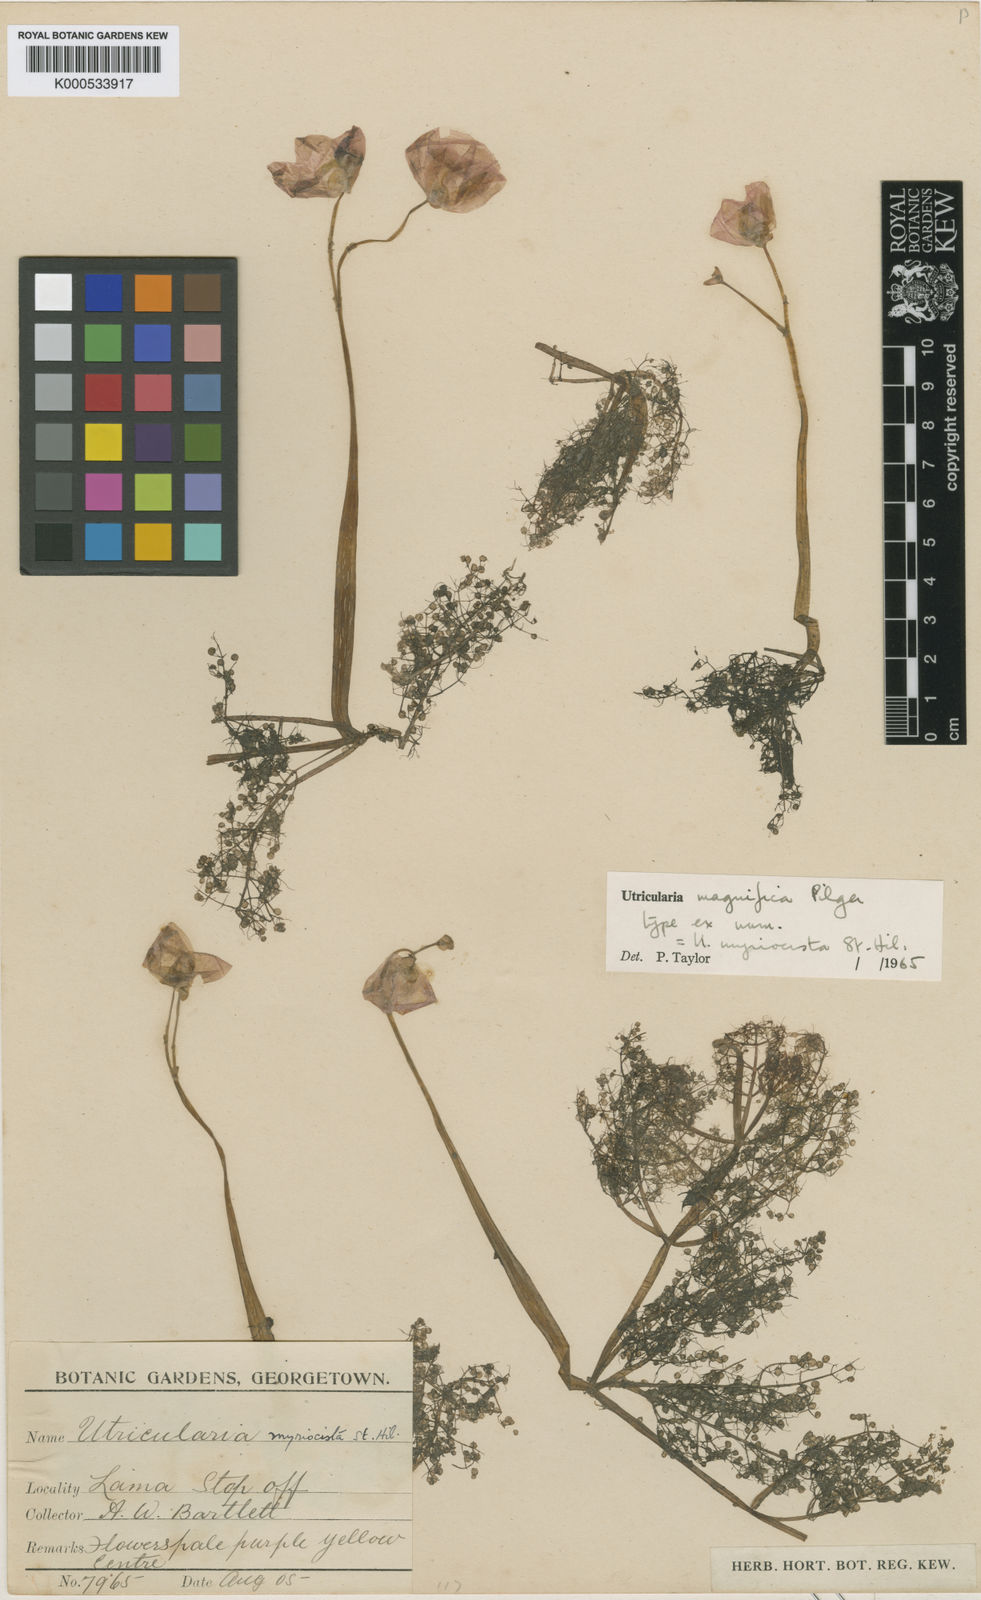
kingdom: Plantae
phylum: Tracheophyta
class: Magnoliopsida
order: Lamiales
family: Lentibulariaceae
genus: Utricularia
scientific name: Utricularia myriocista
